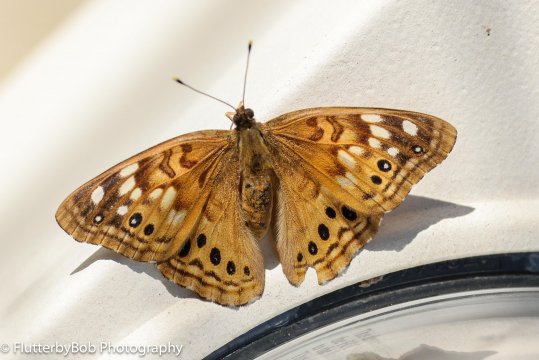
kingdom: Animalia
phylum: Arthropoda
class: Insecta
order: Lepidoptera
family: Nymphalidae
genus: Asterocampa
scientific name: Asterocampa leilia
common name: Empress Leilia
